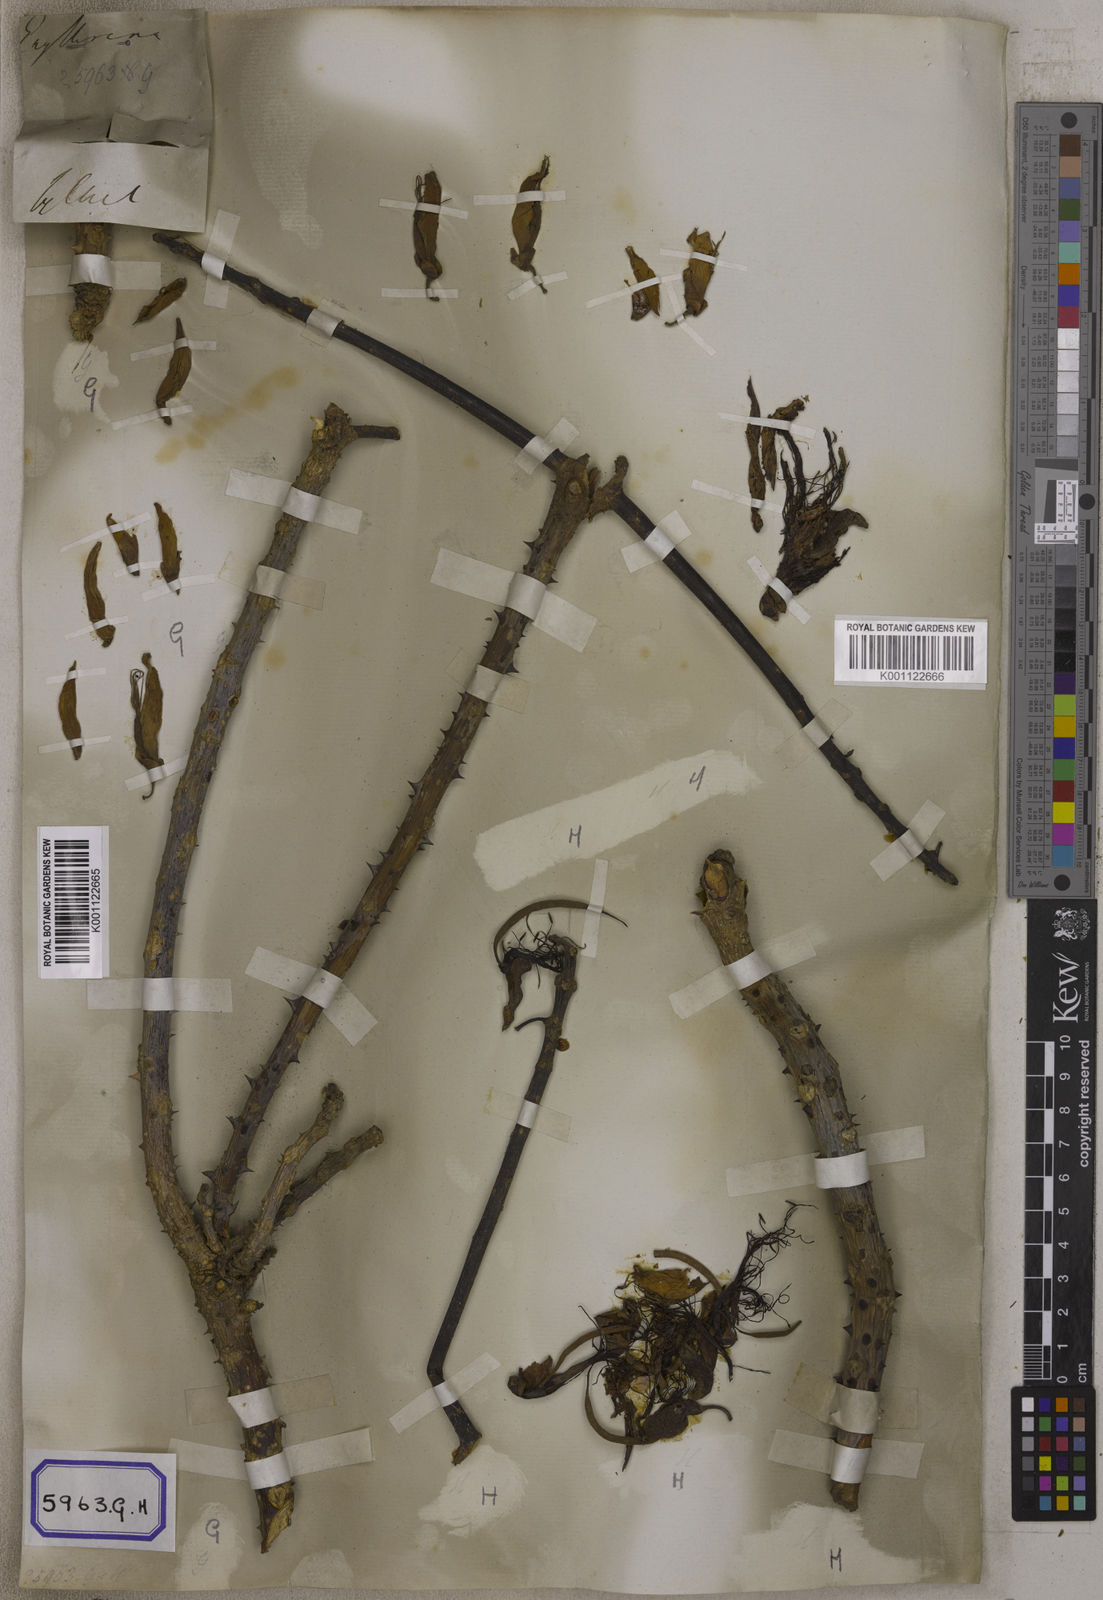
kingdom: Plantae
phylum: Tracheophyta
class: Magnoliopsida
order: Fabales
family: Fabaceae
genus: Erythrina
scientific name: Erythrina variegata
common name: Indian coral tree
